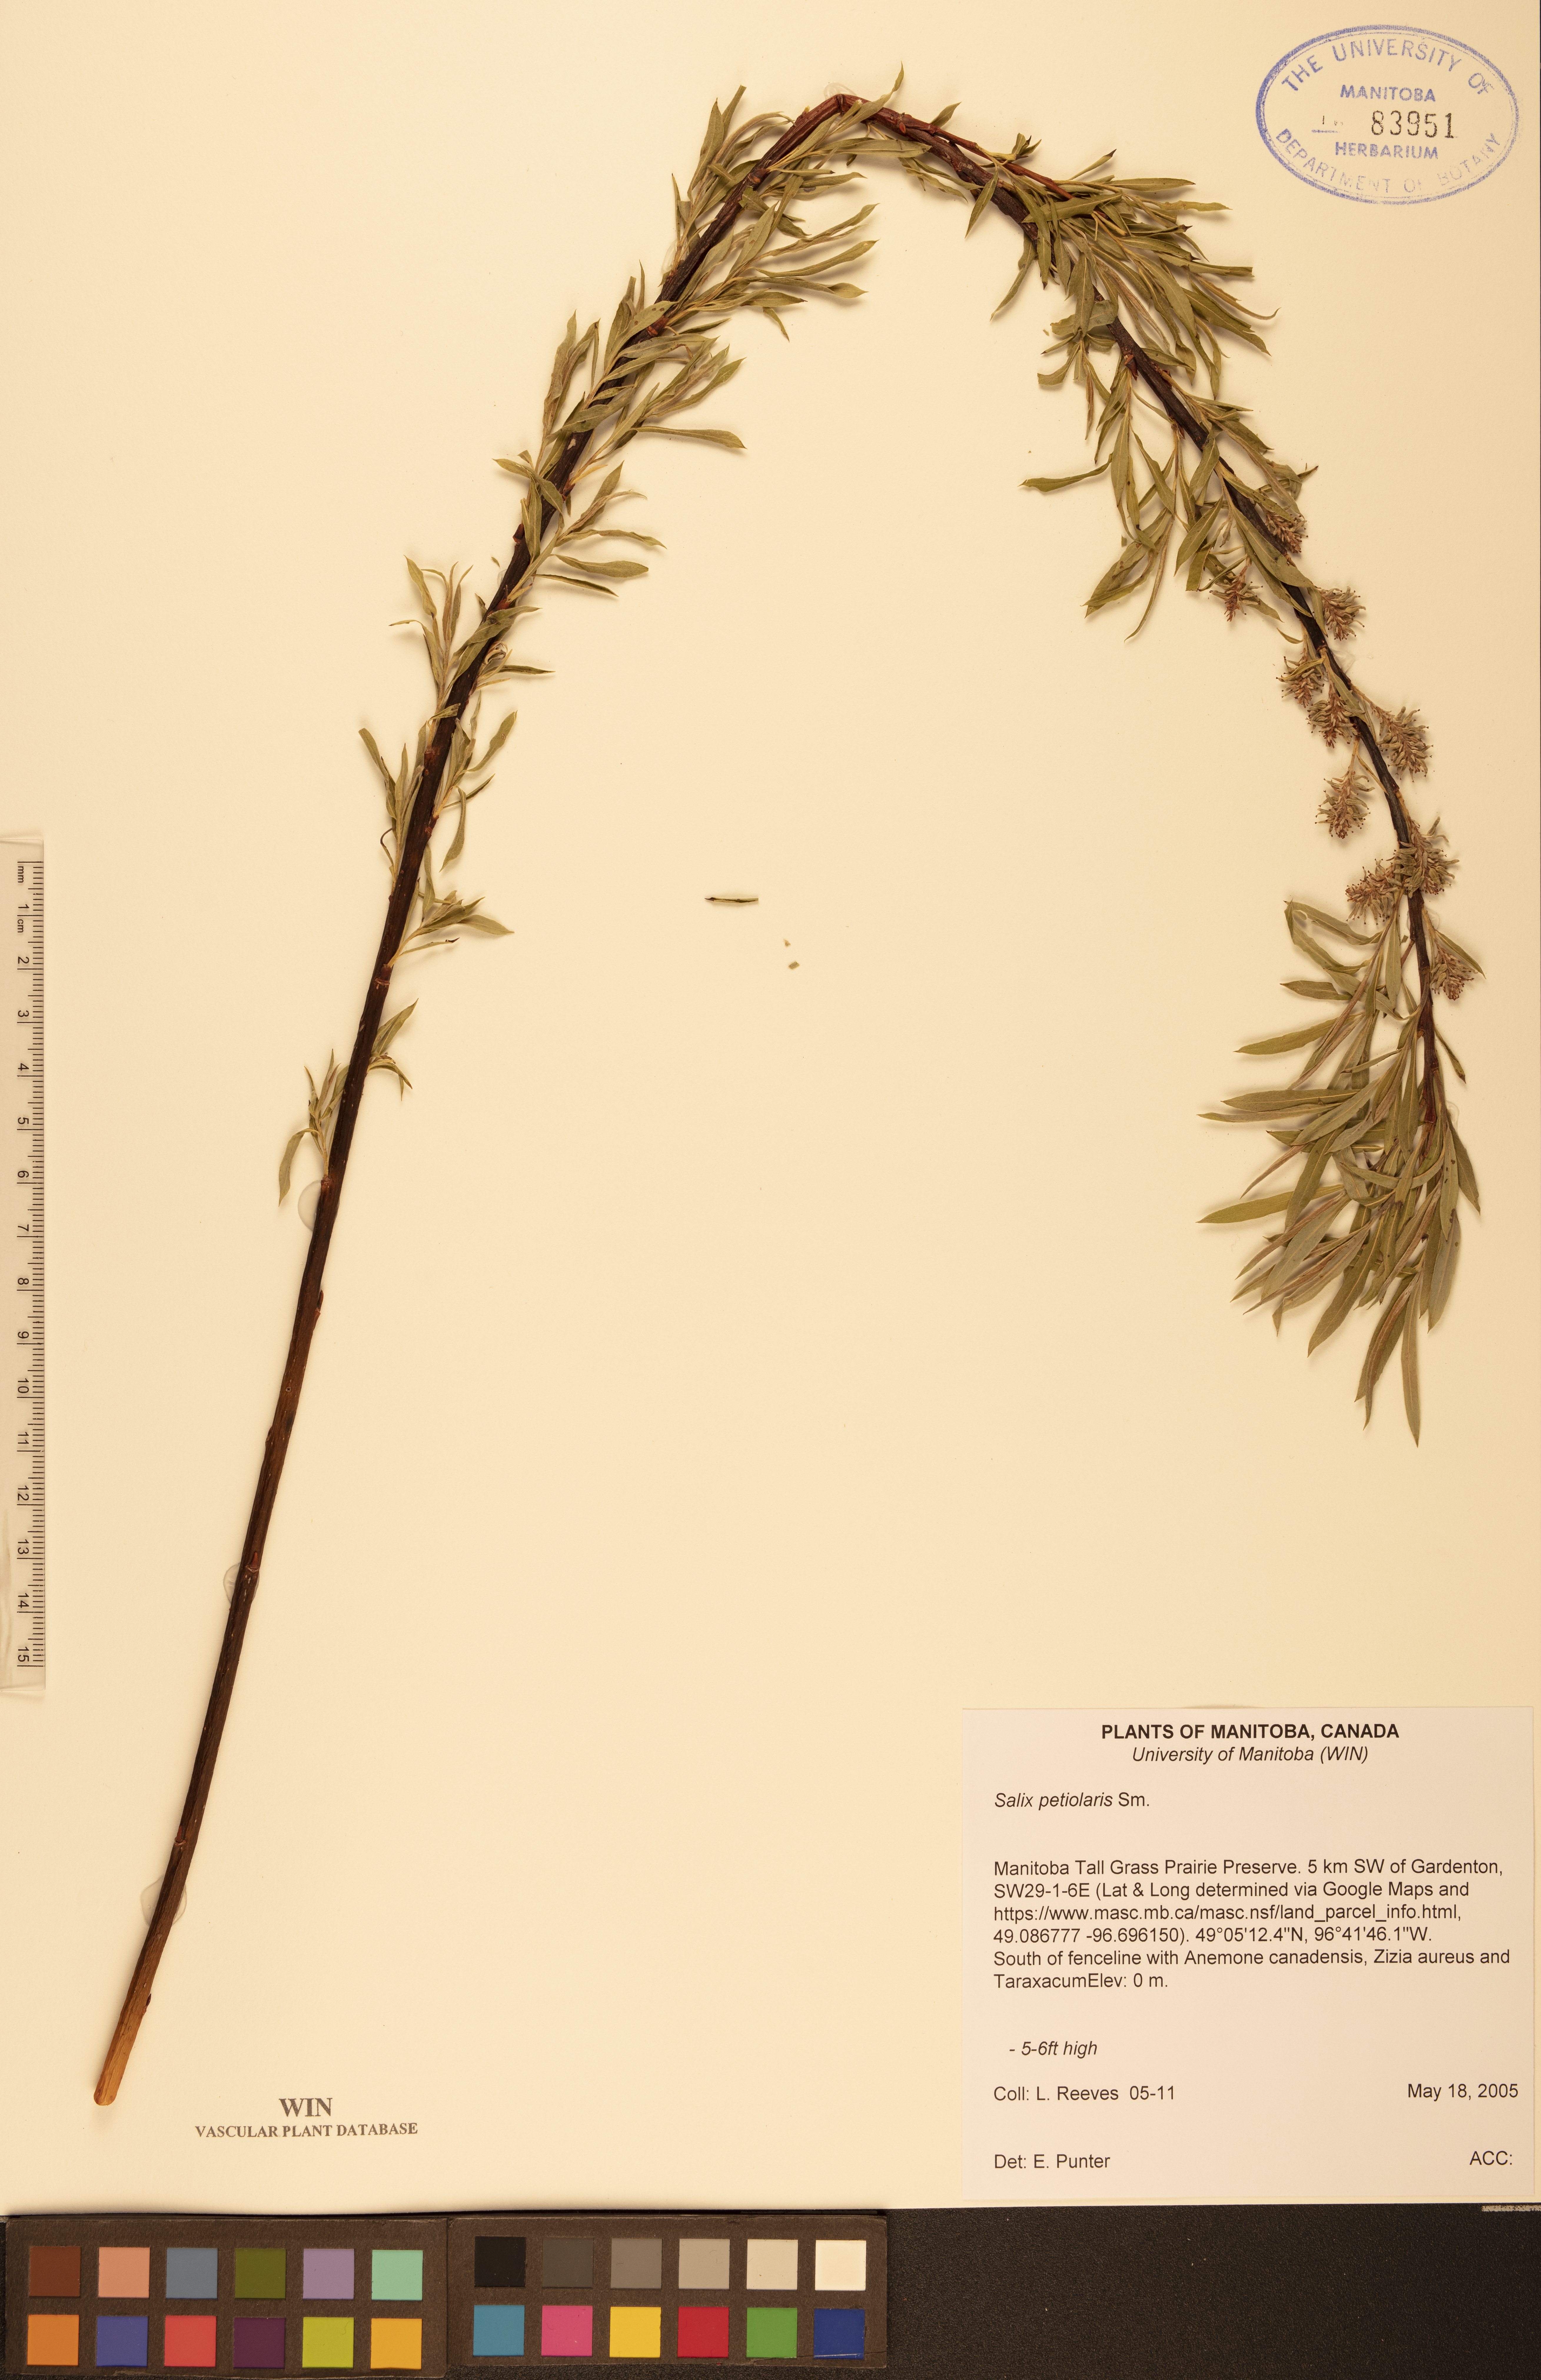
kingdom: Plantae
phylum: Tracheophyta
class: Magnoliopsida
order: Malpighiales
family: Salicaceae
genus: Salix
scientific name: Salix petiolaris
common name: Slender willow
